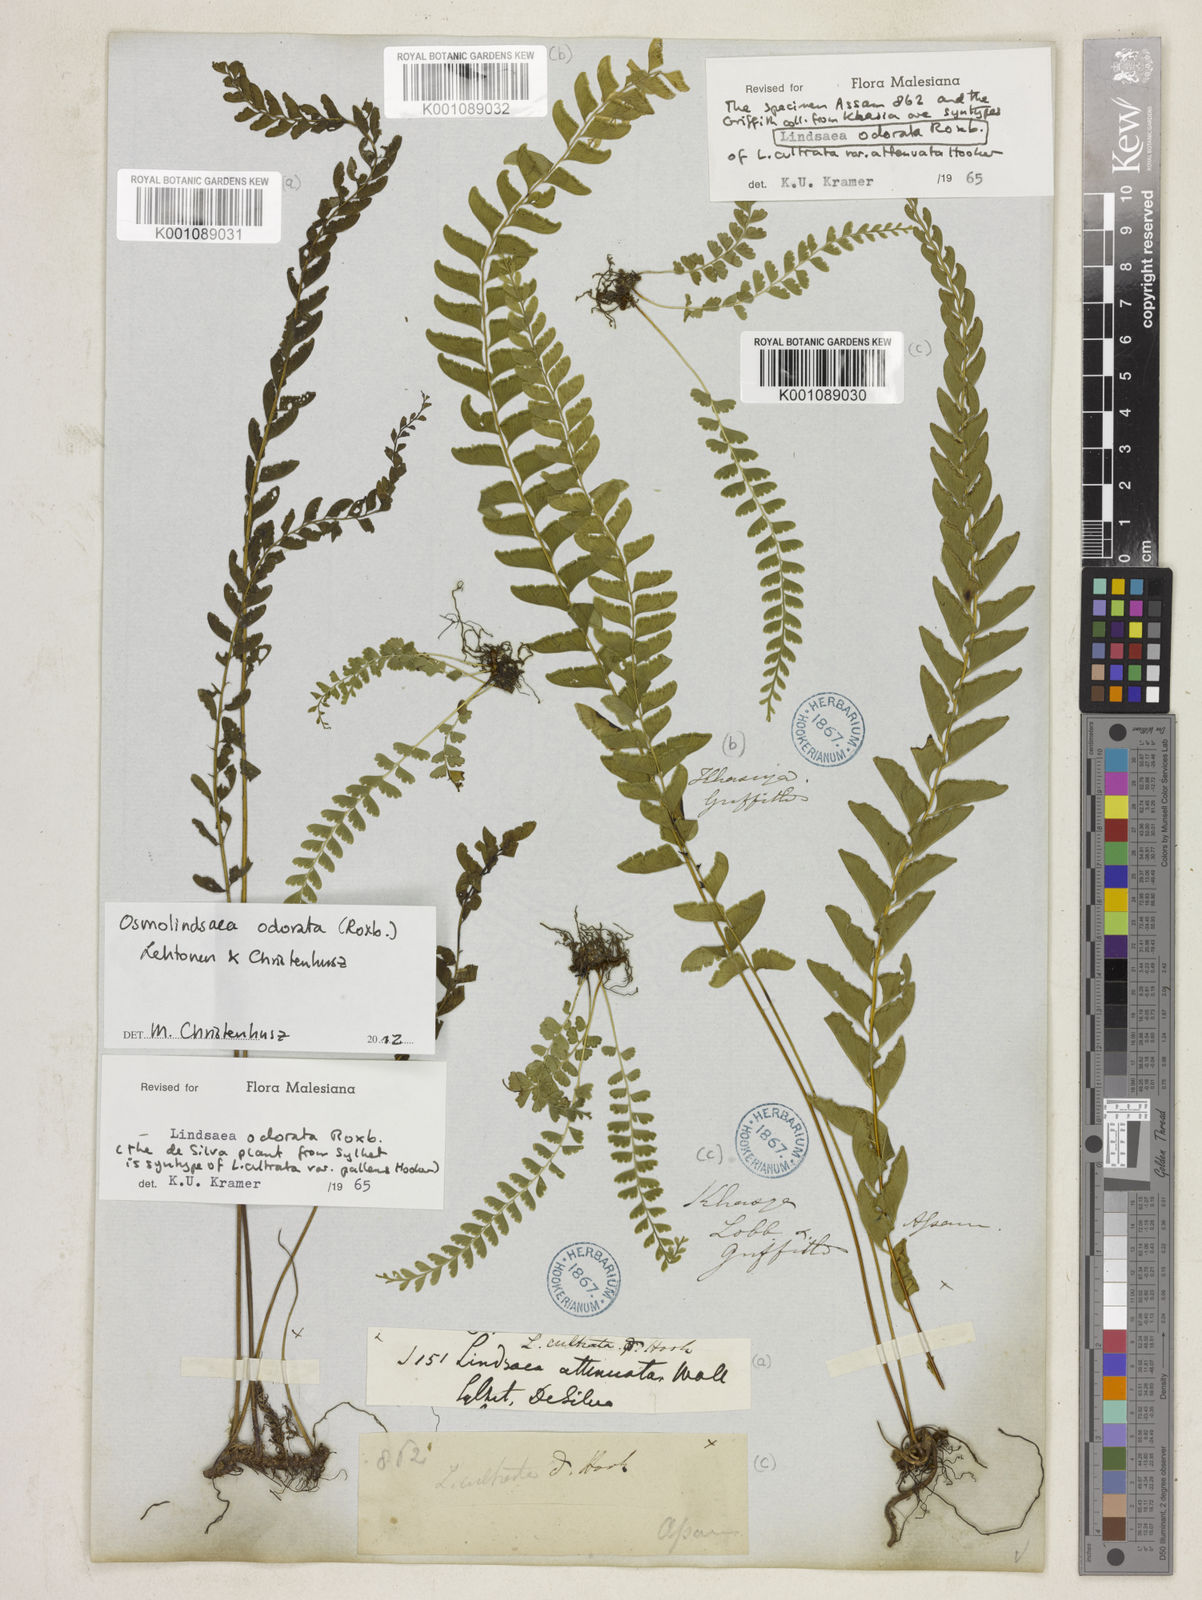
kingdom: Plantae
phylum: Tracheophyta
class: Polypodiopsida
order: Polypodiales
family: Lindsaeaceae
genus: Osmolindsaea
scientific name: Osmolindsaea odorata
